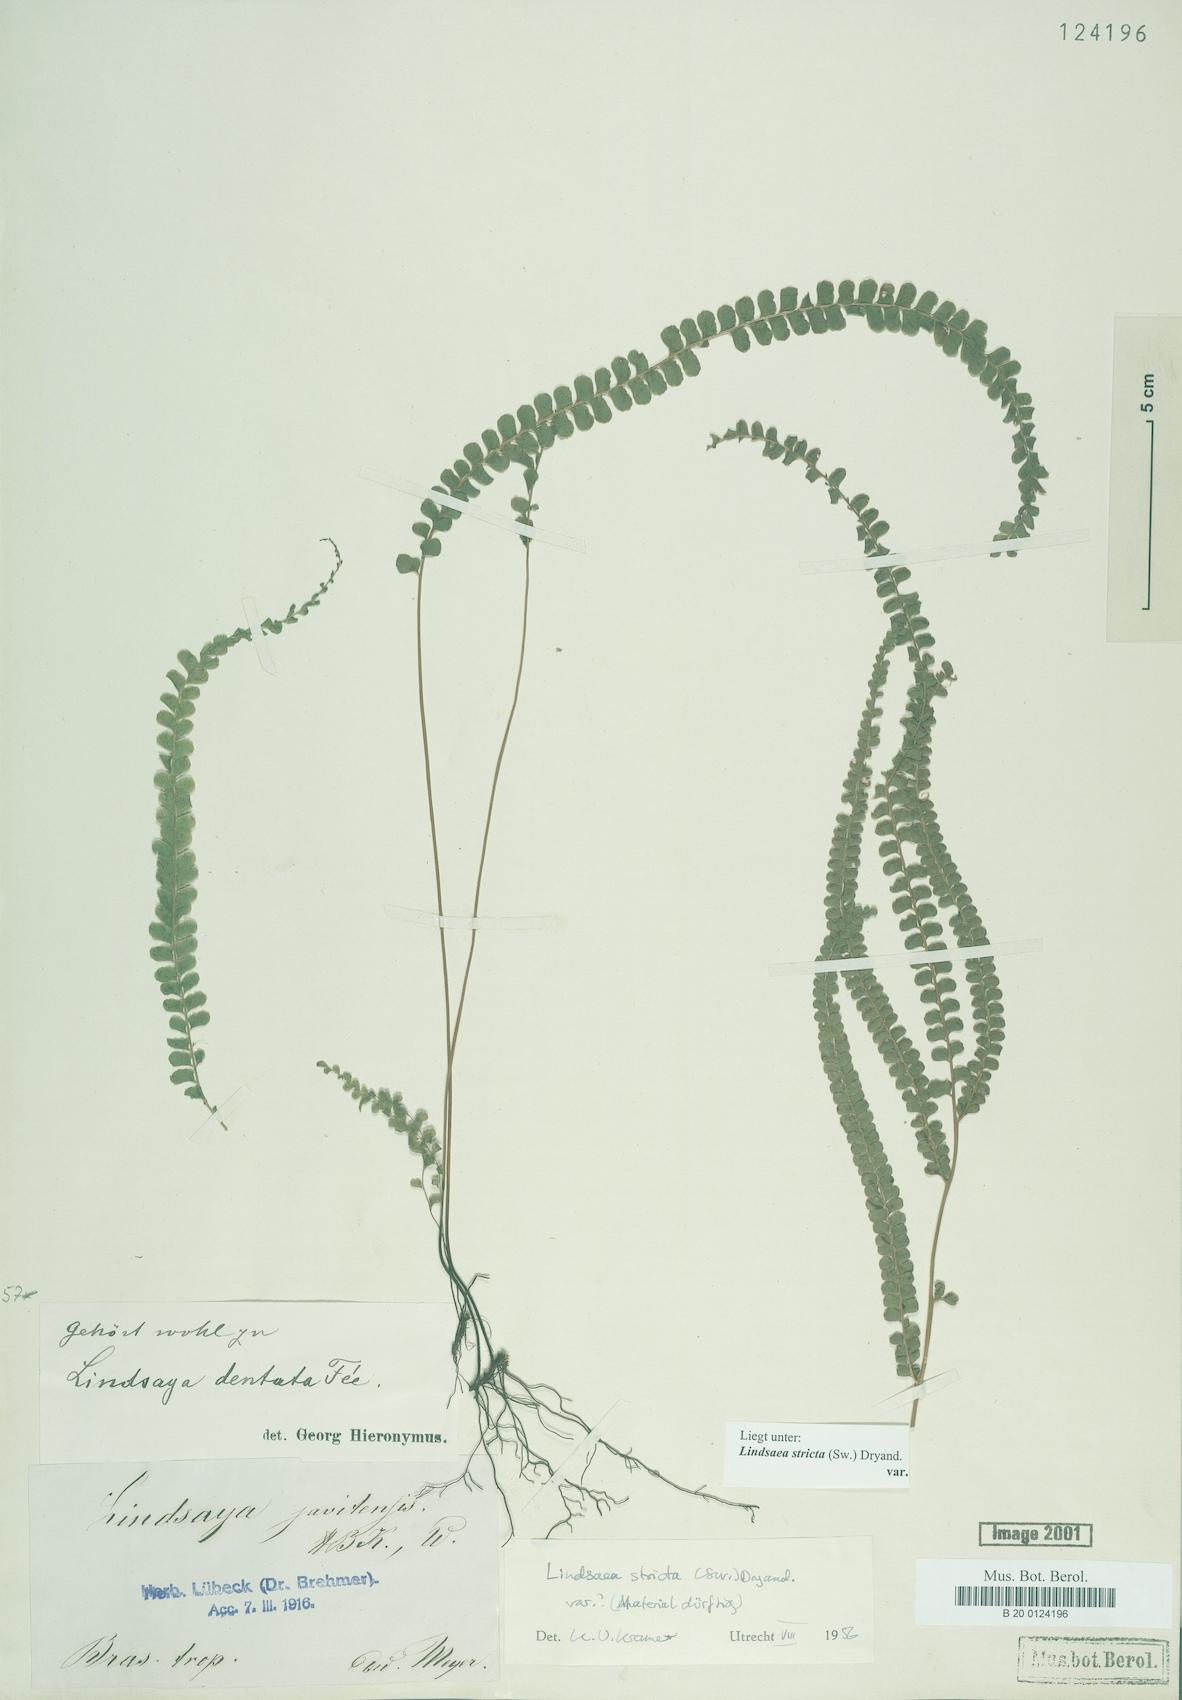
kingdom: Plantae
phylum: Tracheophyta
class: Polypodiopsida
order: Polypodiales
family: Lindsaeaceae
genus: Lindsaea
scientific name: Lindsaea stricta
